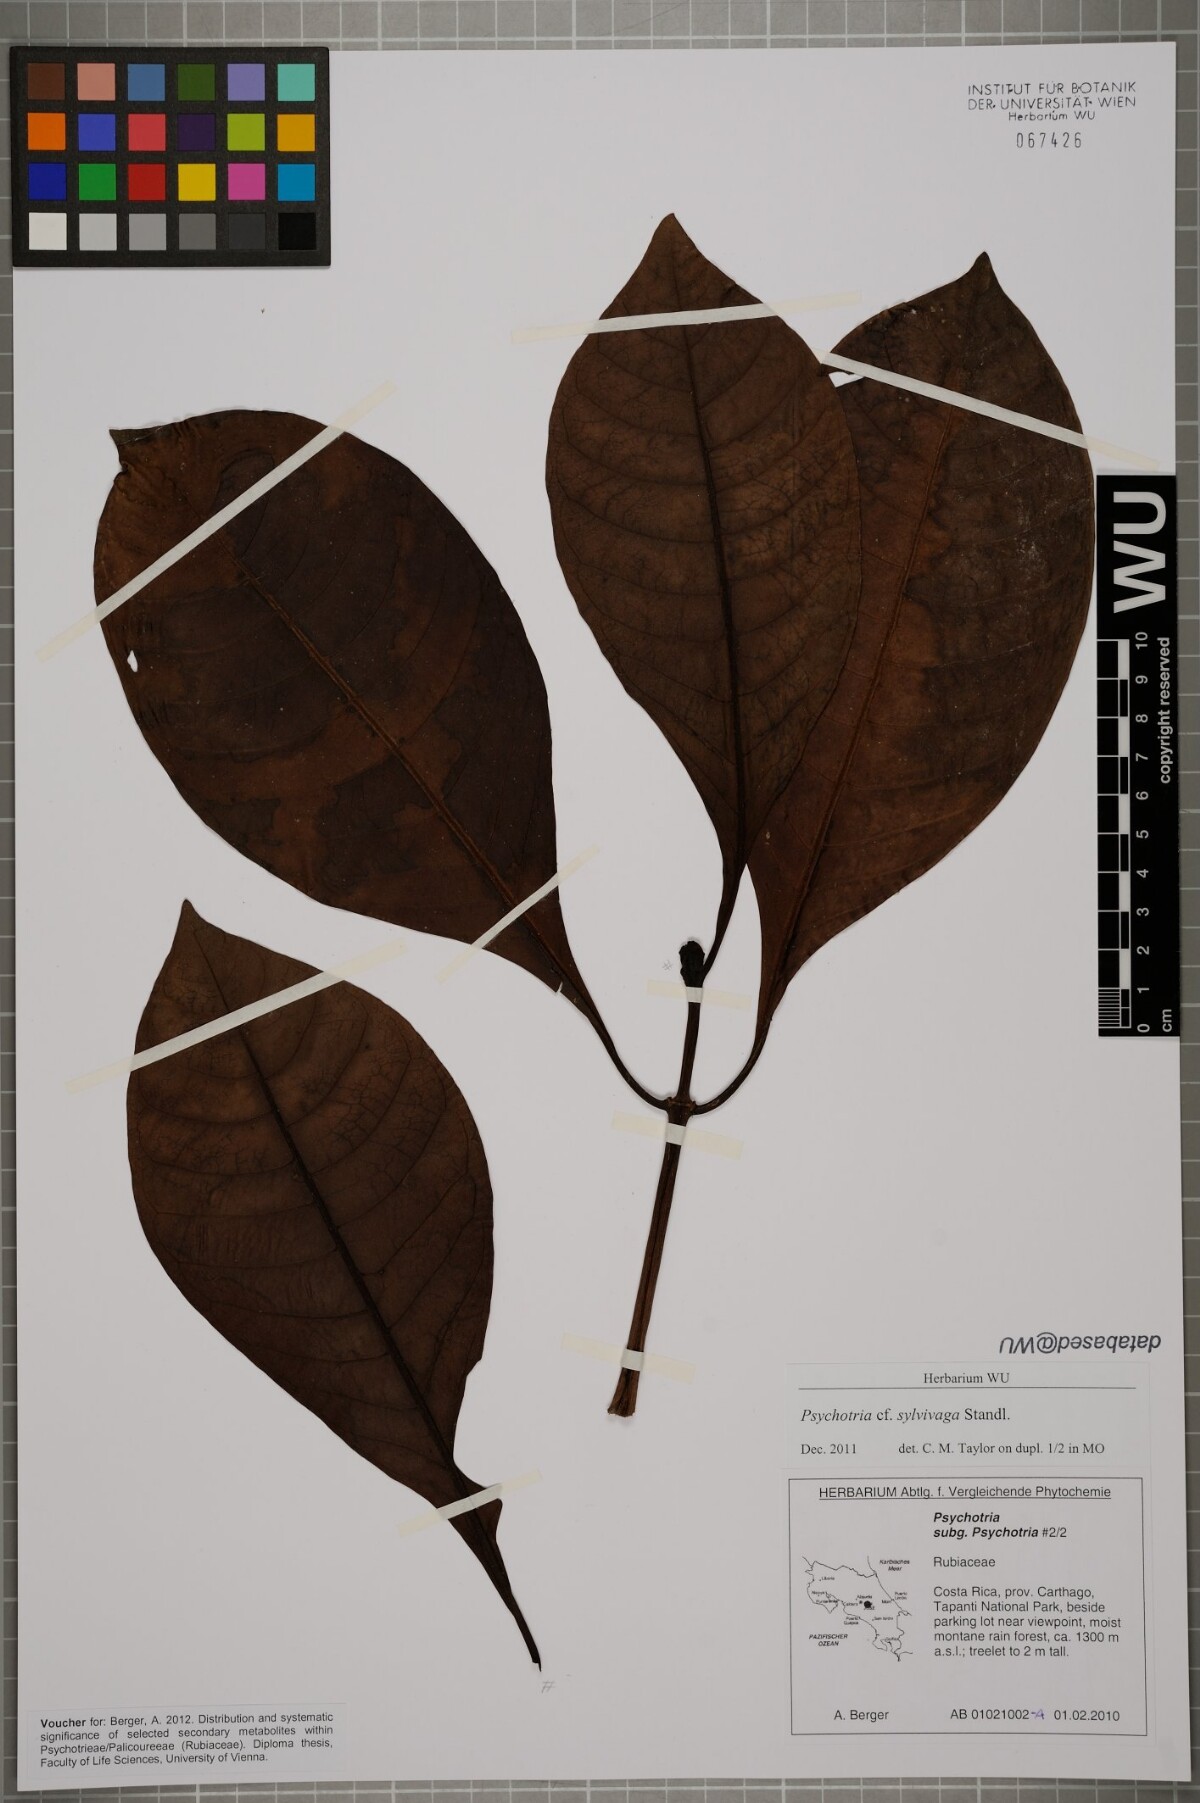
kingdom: Plantae
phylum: Tracheophyta
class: Magnoliopsida
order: Gentianales
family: Rubiaceae
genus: Psychotria
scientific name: Psychotria sylvivaga
